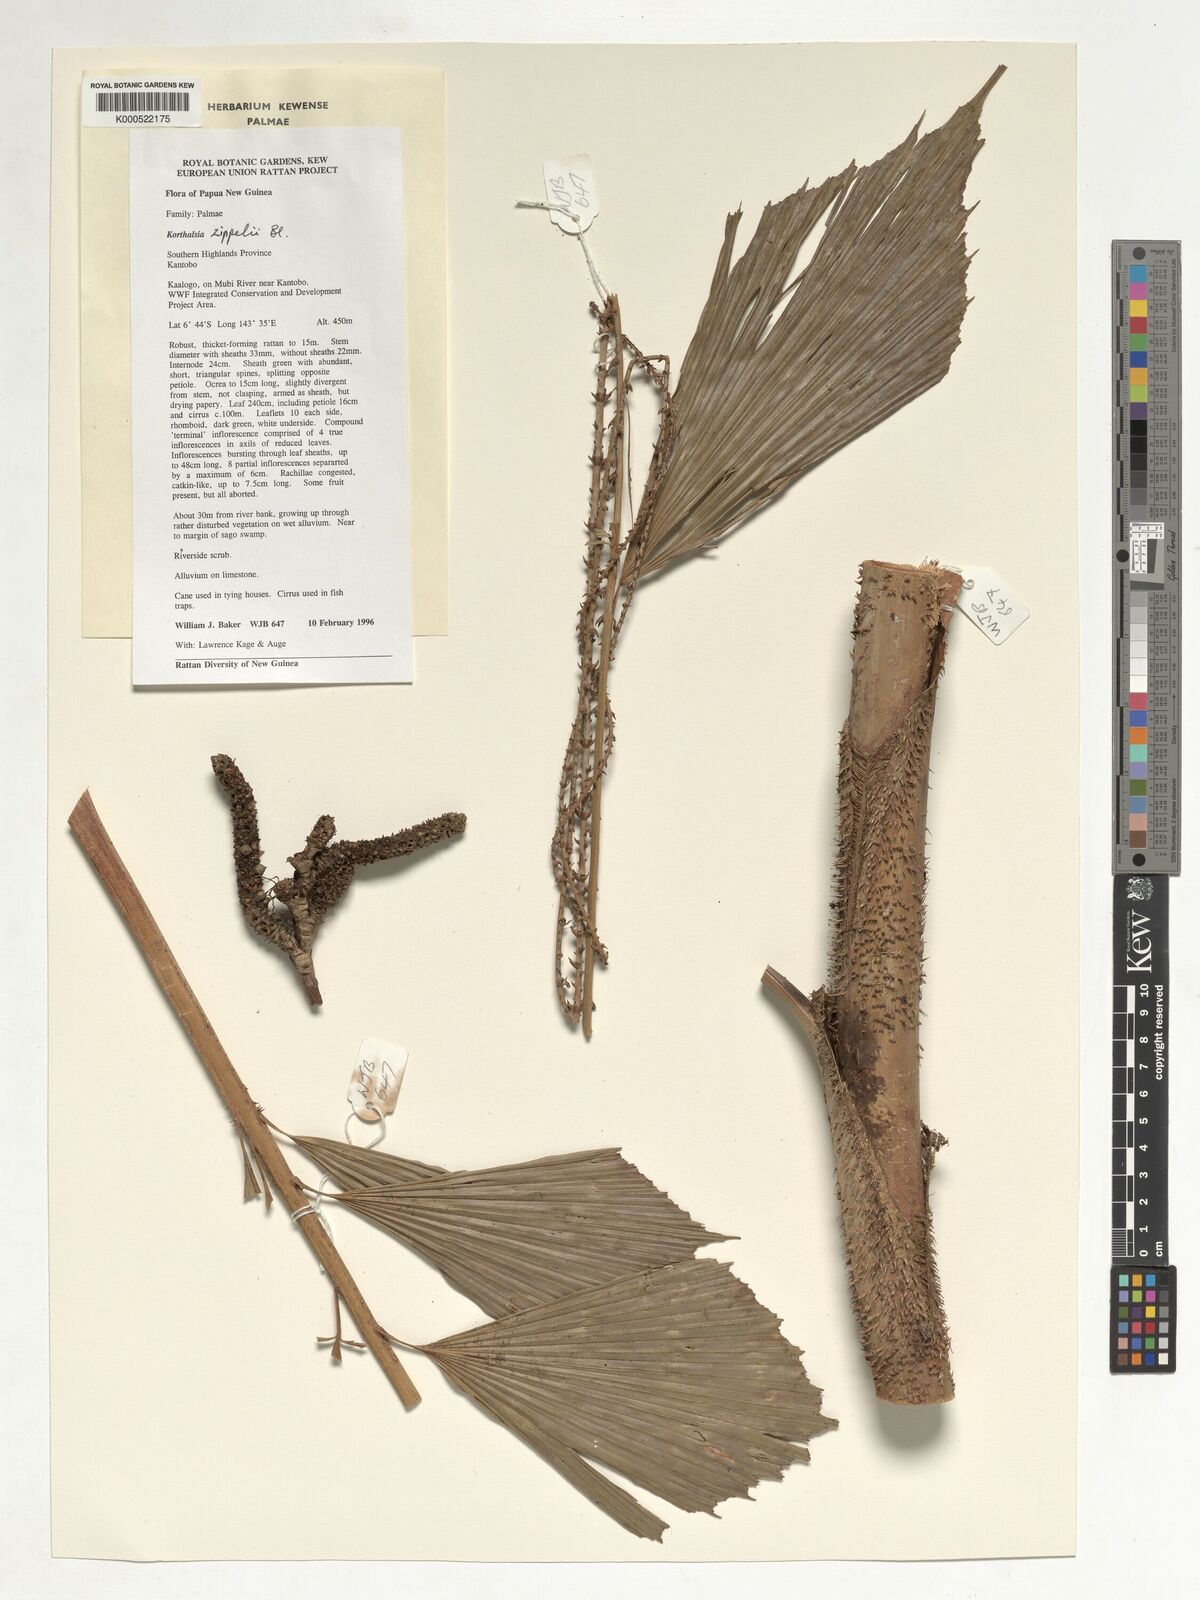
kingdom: Plantae
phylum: Tracheophyta
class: Liliopsida
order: Arecales
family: Arecaceae
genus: Korthalsia
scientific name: Korthalsia zippelii
